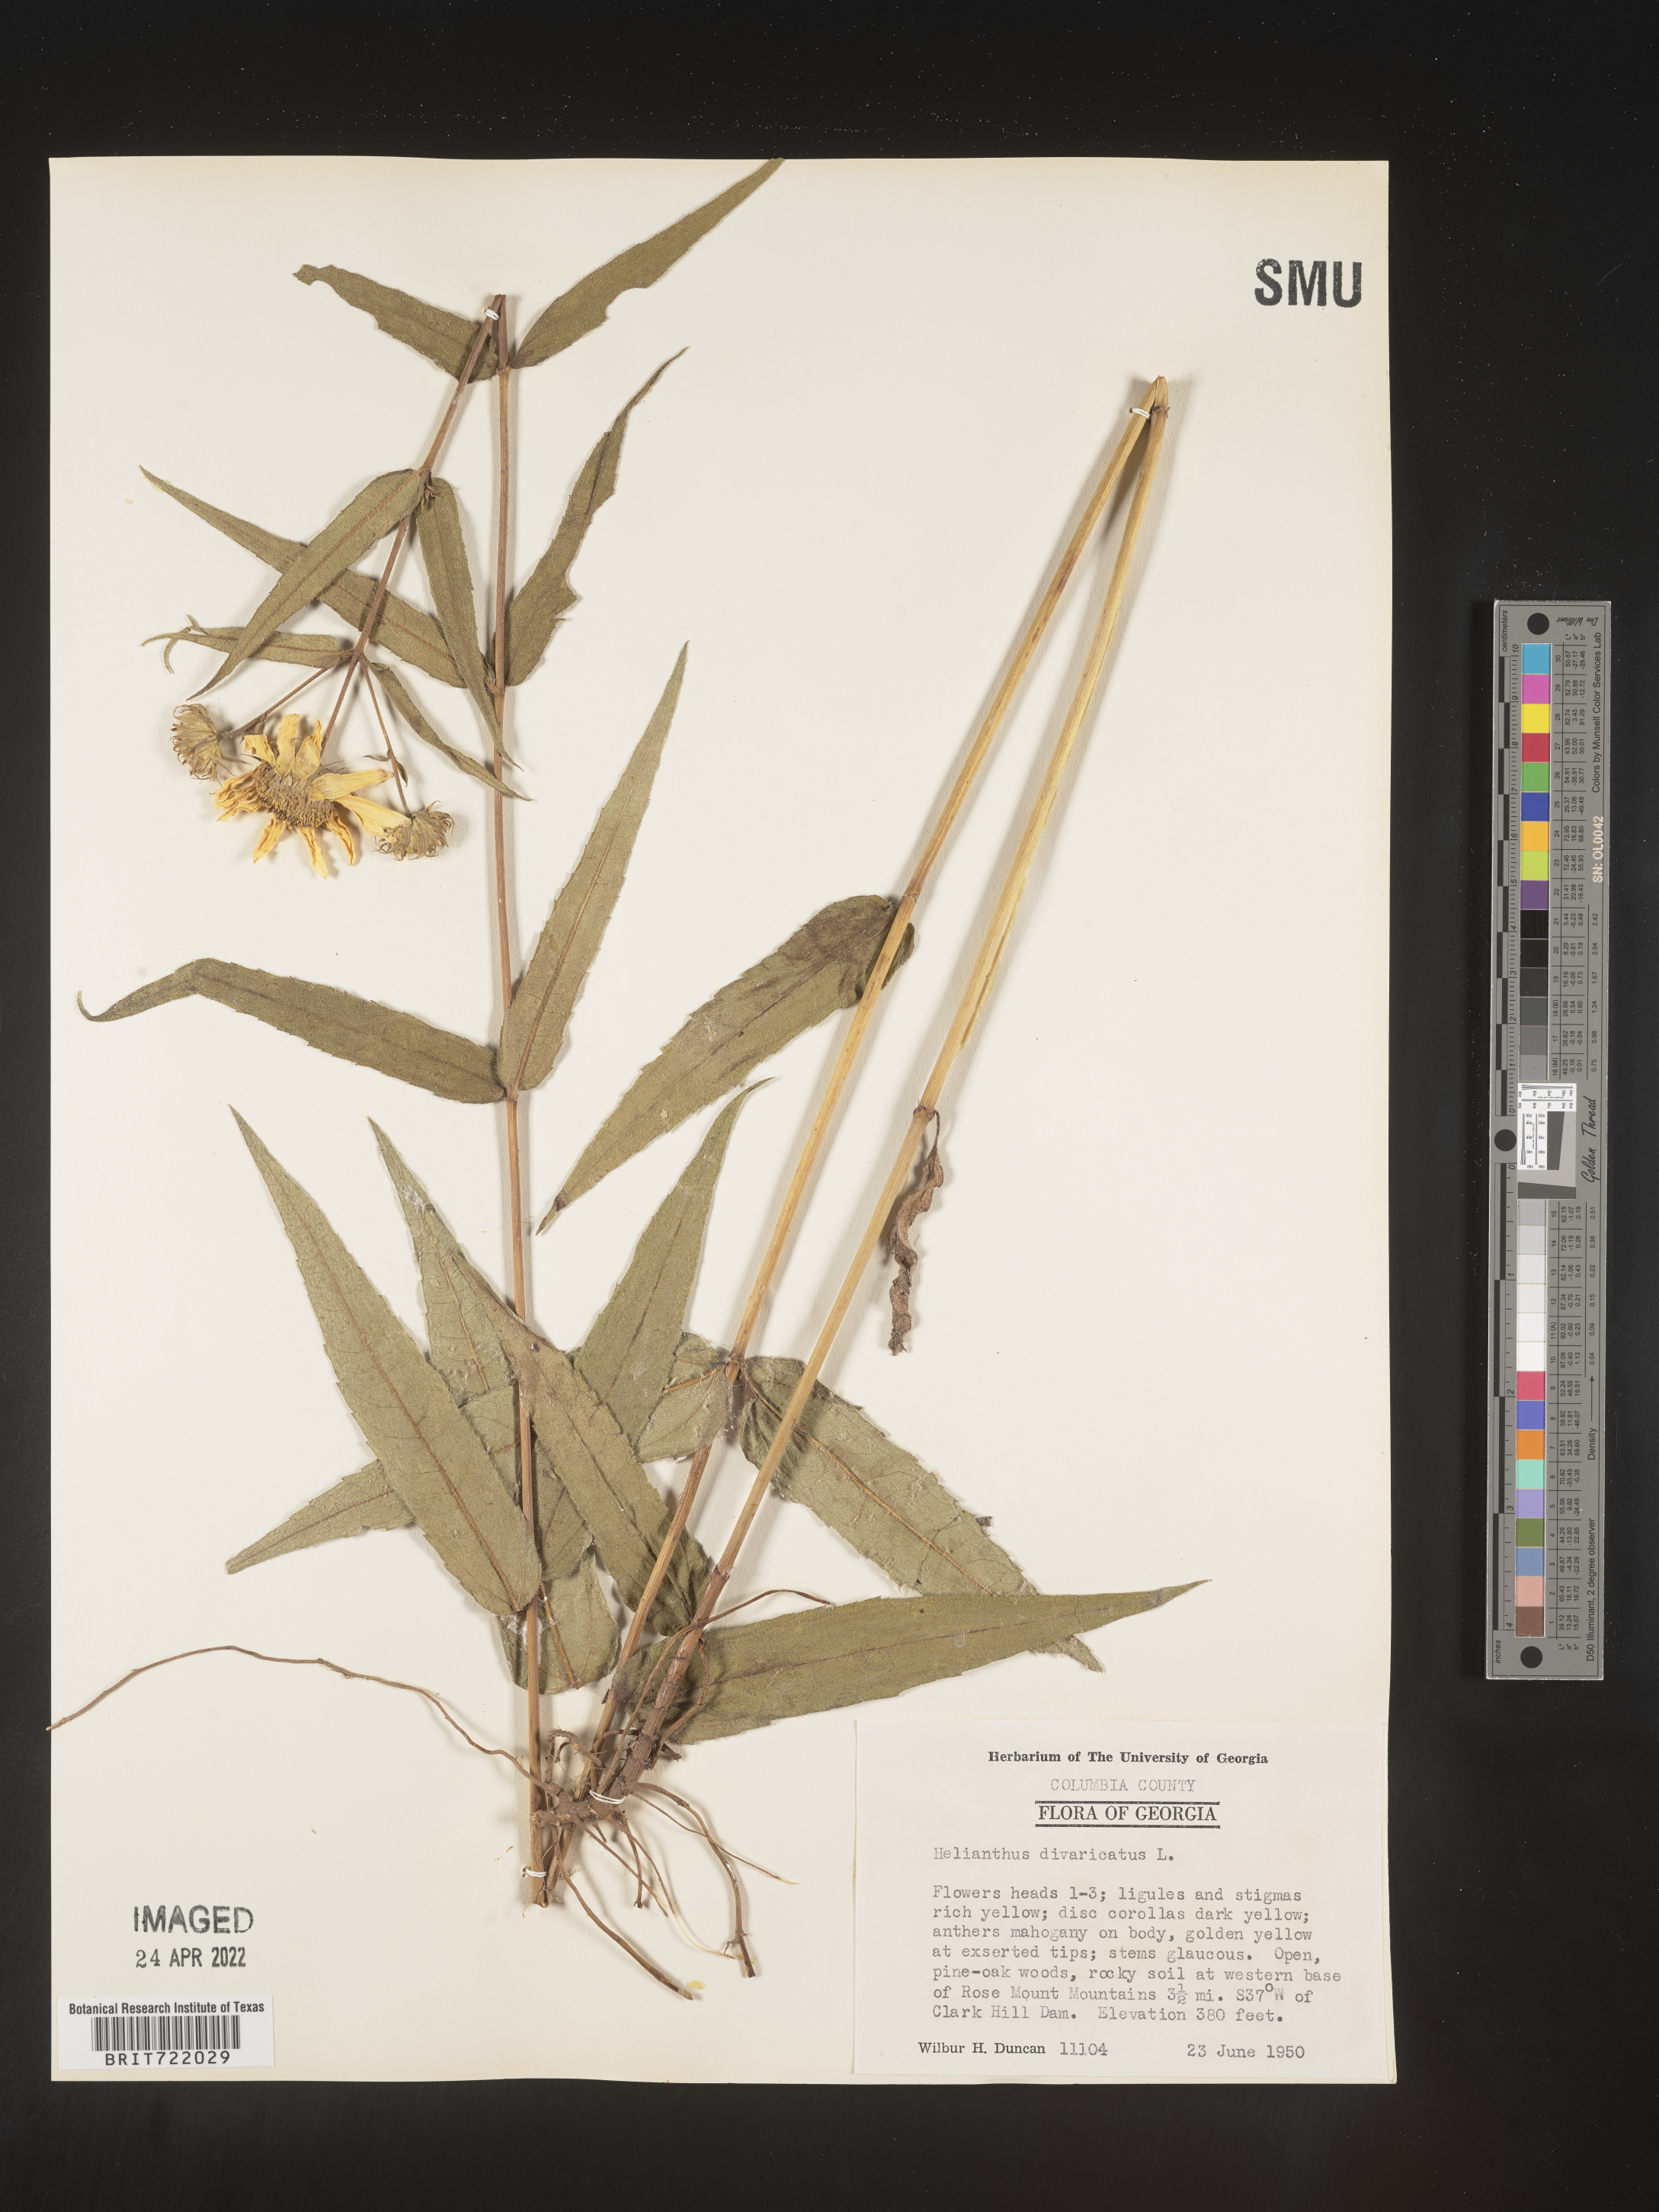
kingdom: Plantae
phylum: Tracheophyta
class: Magnoliopsida
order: Asterales
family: Asteraceae
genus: Helianthus
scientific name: Helianthus divaricatus
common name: Divergent sunflower
